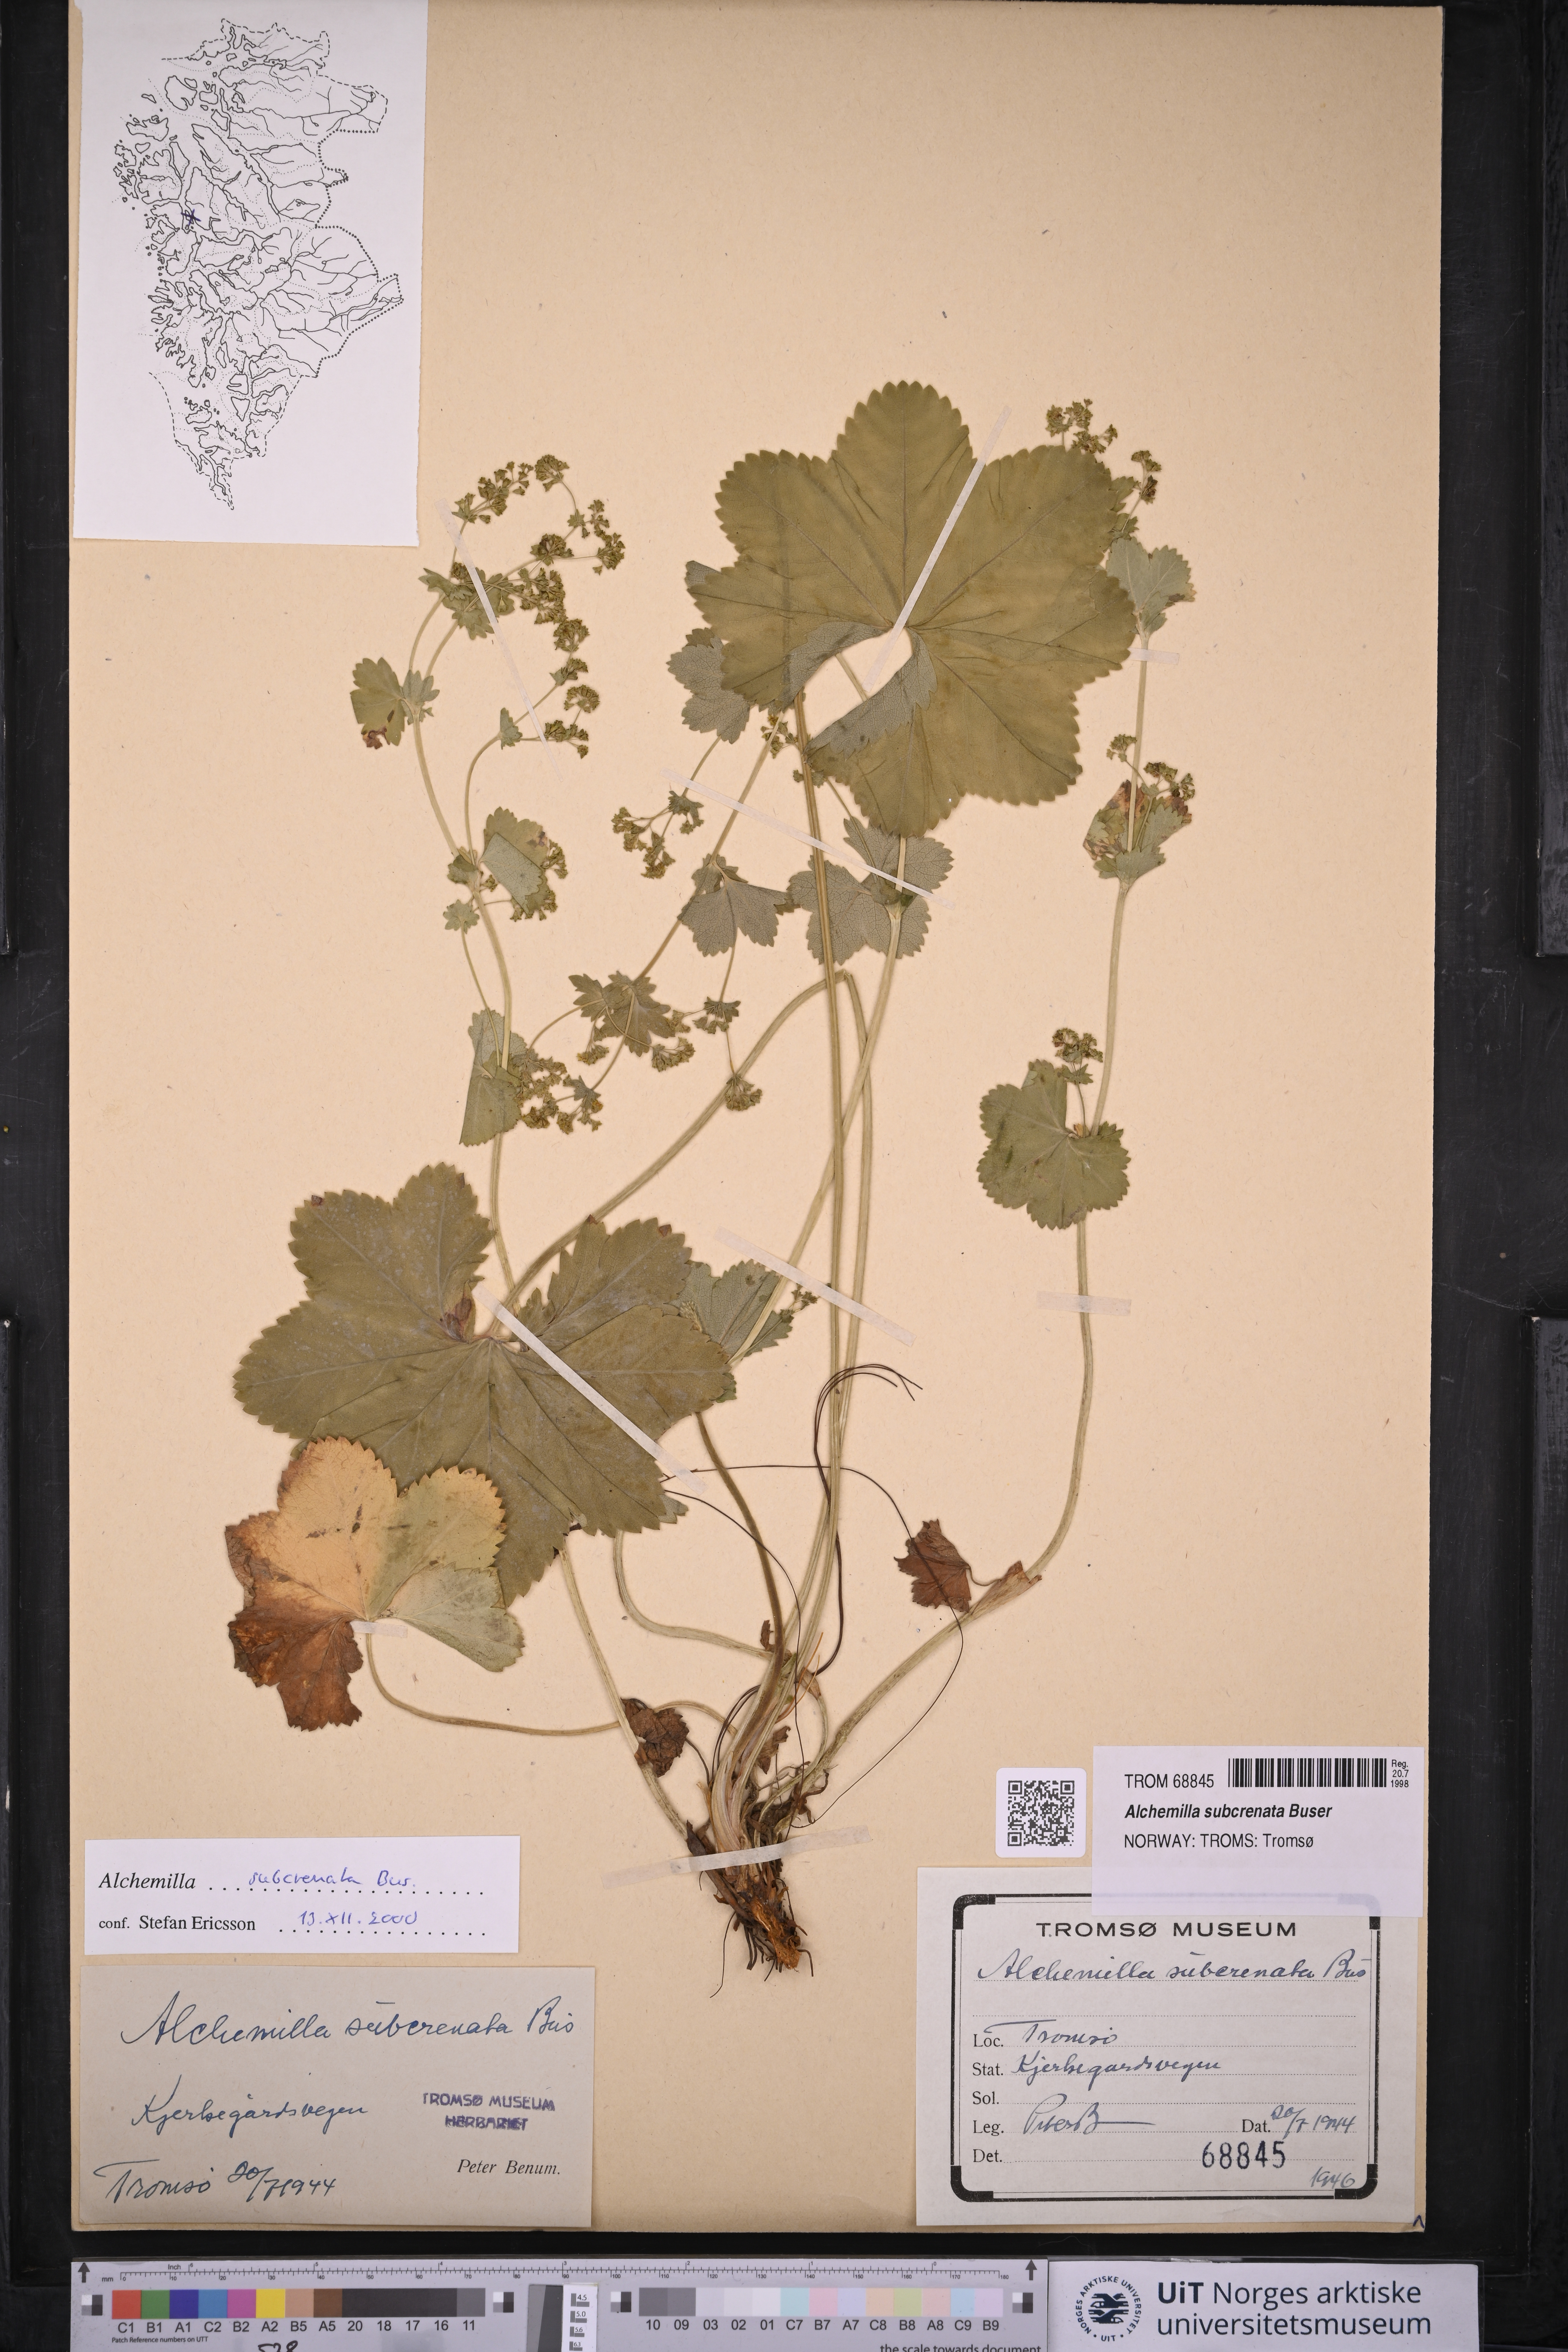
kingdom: Plantae
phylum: Tracheophyta
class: Magnoliopsida
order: Rosales
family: Rosaceae
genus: Alchemilla
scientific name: Alchemilla subcrenata
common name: Broadtooth lady's mantle
